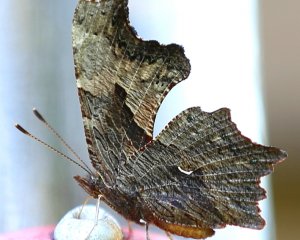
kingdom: Animalia
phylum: Arthropoda
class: Insecta
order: Lepidoptera
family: Nymphalidae
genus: Polygonia
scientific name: Polygonia progne
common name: Gray Comma
